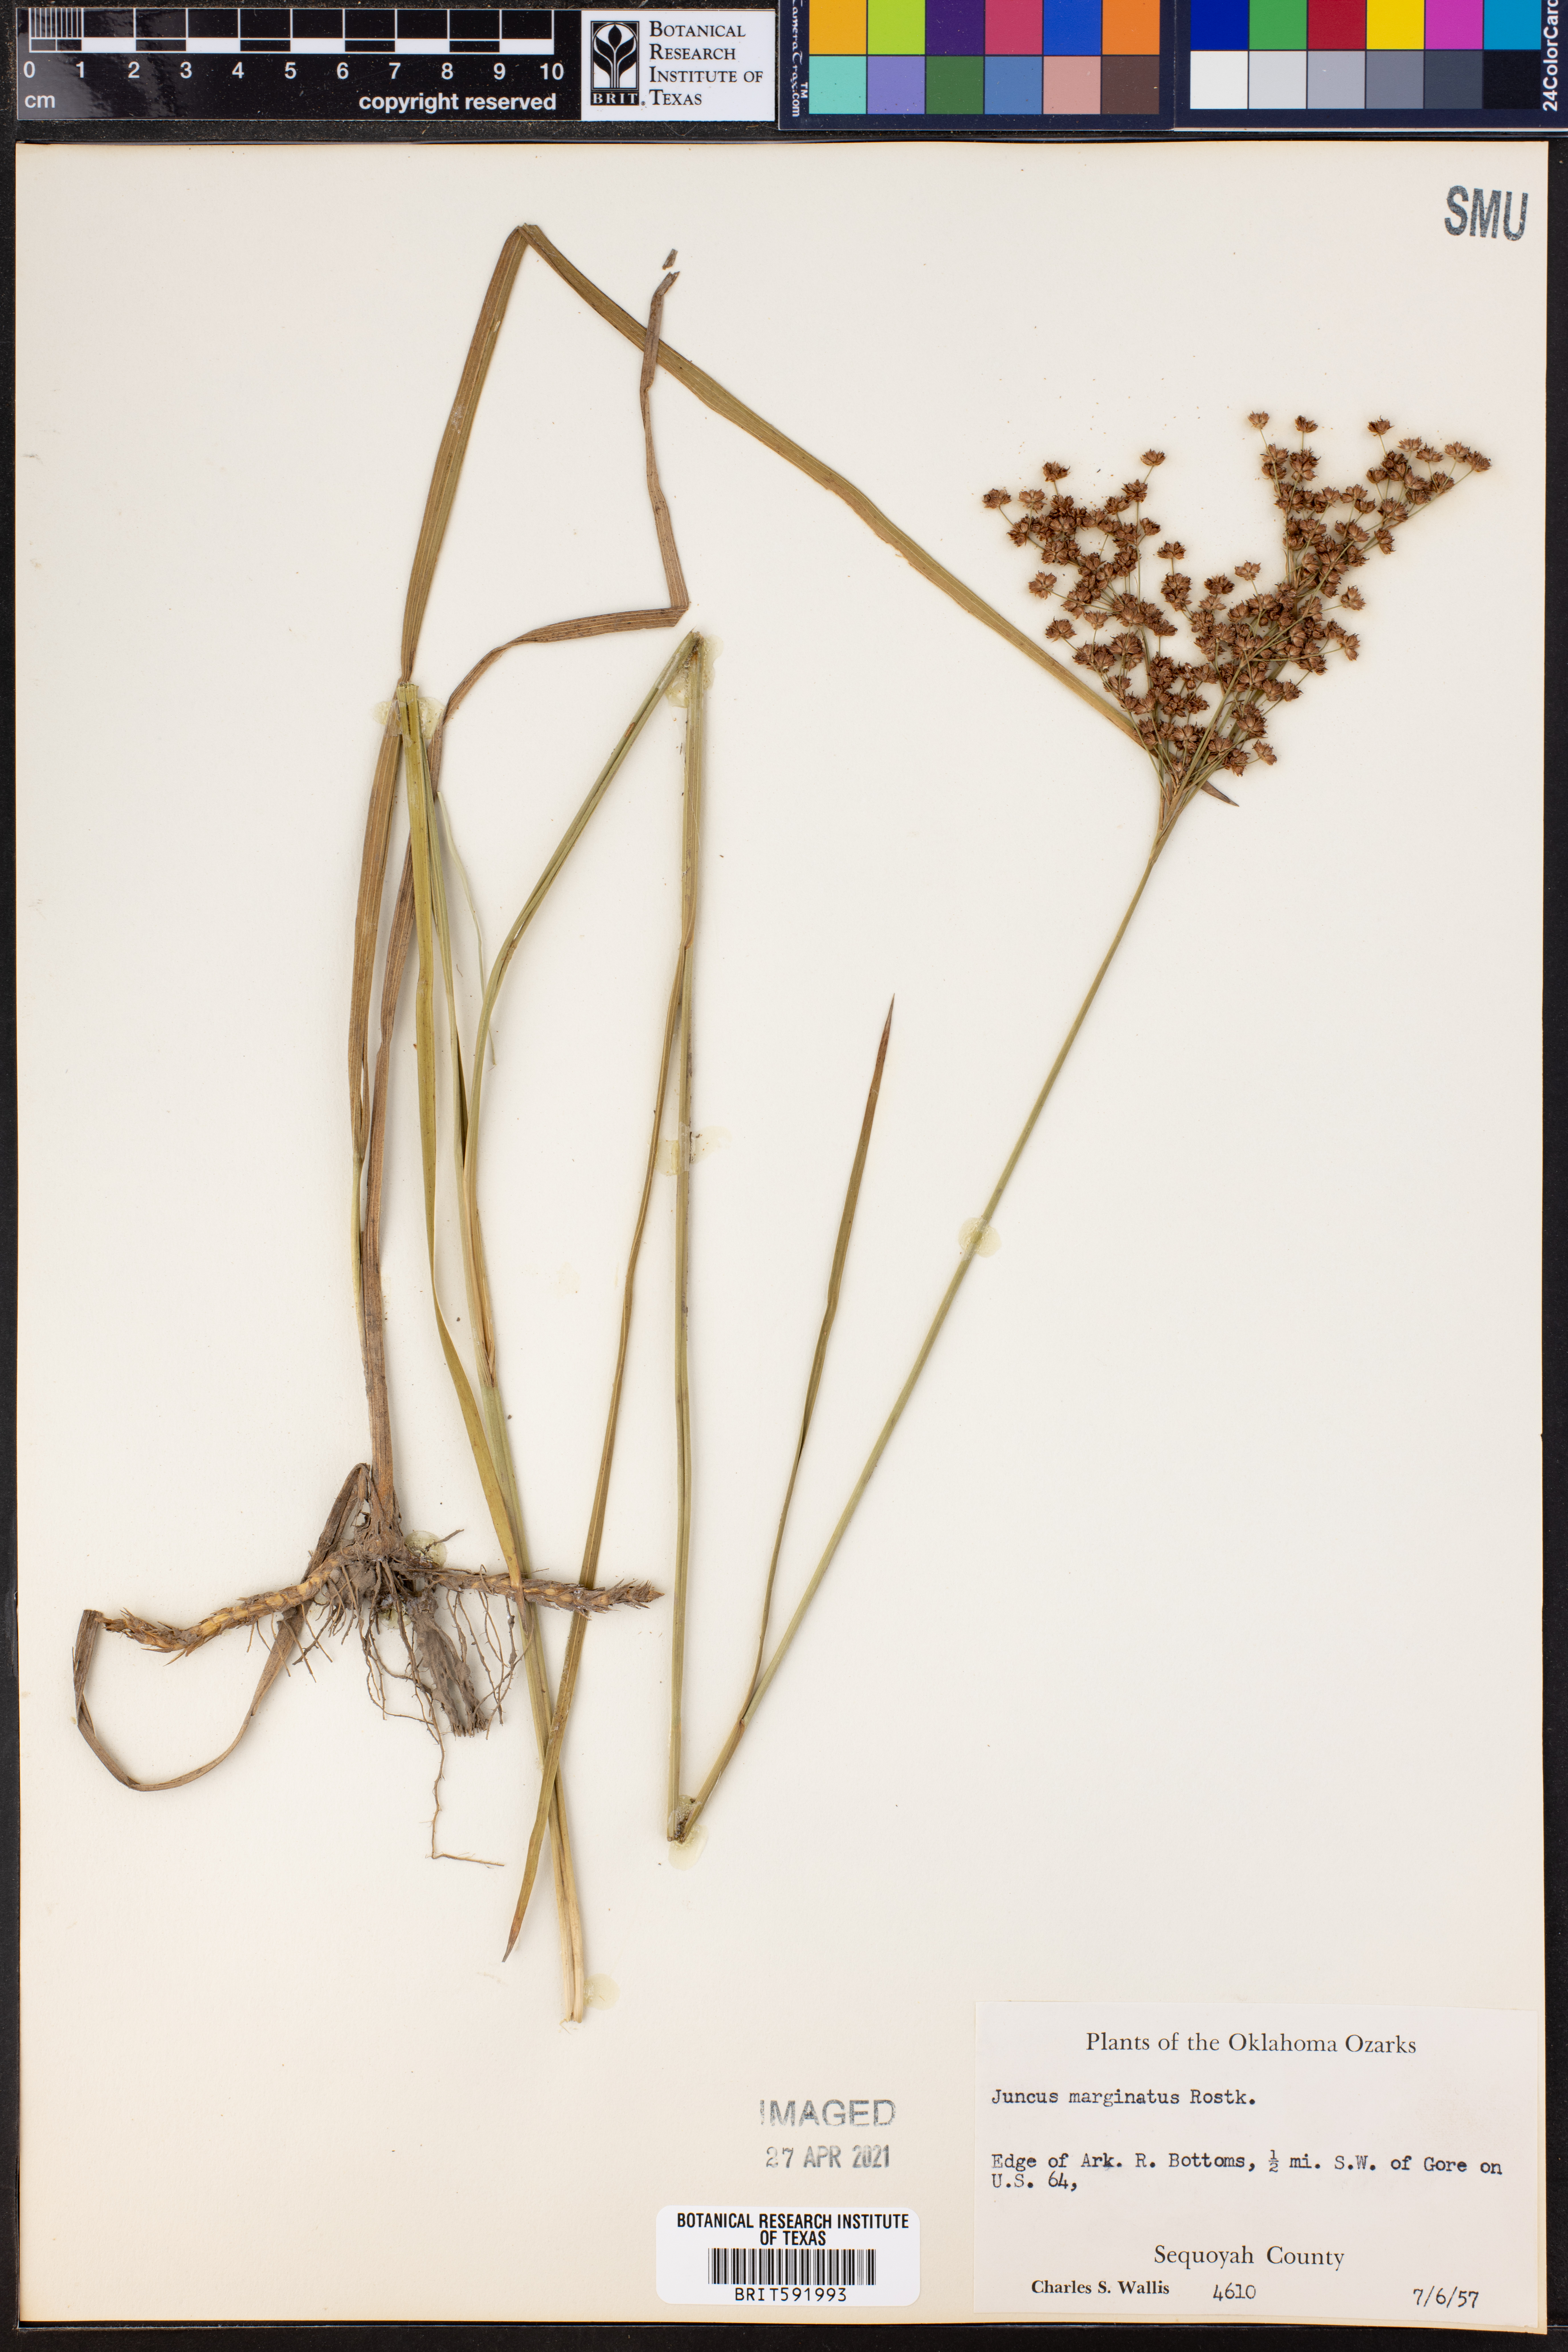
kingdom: Plantae
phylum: Tracheophyta
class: Liliopsida
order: Poales
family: Juncaceae
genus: Juncus
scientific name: Juncus marginatus
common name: Grass-leaf rush
